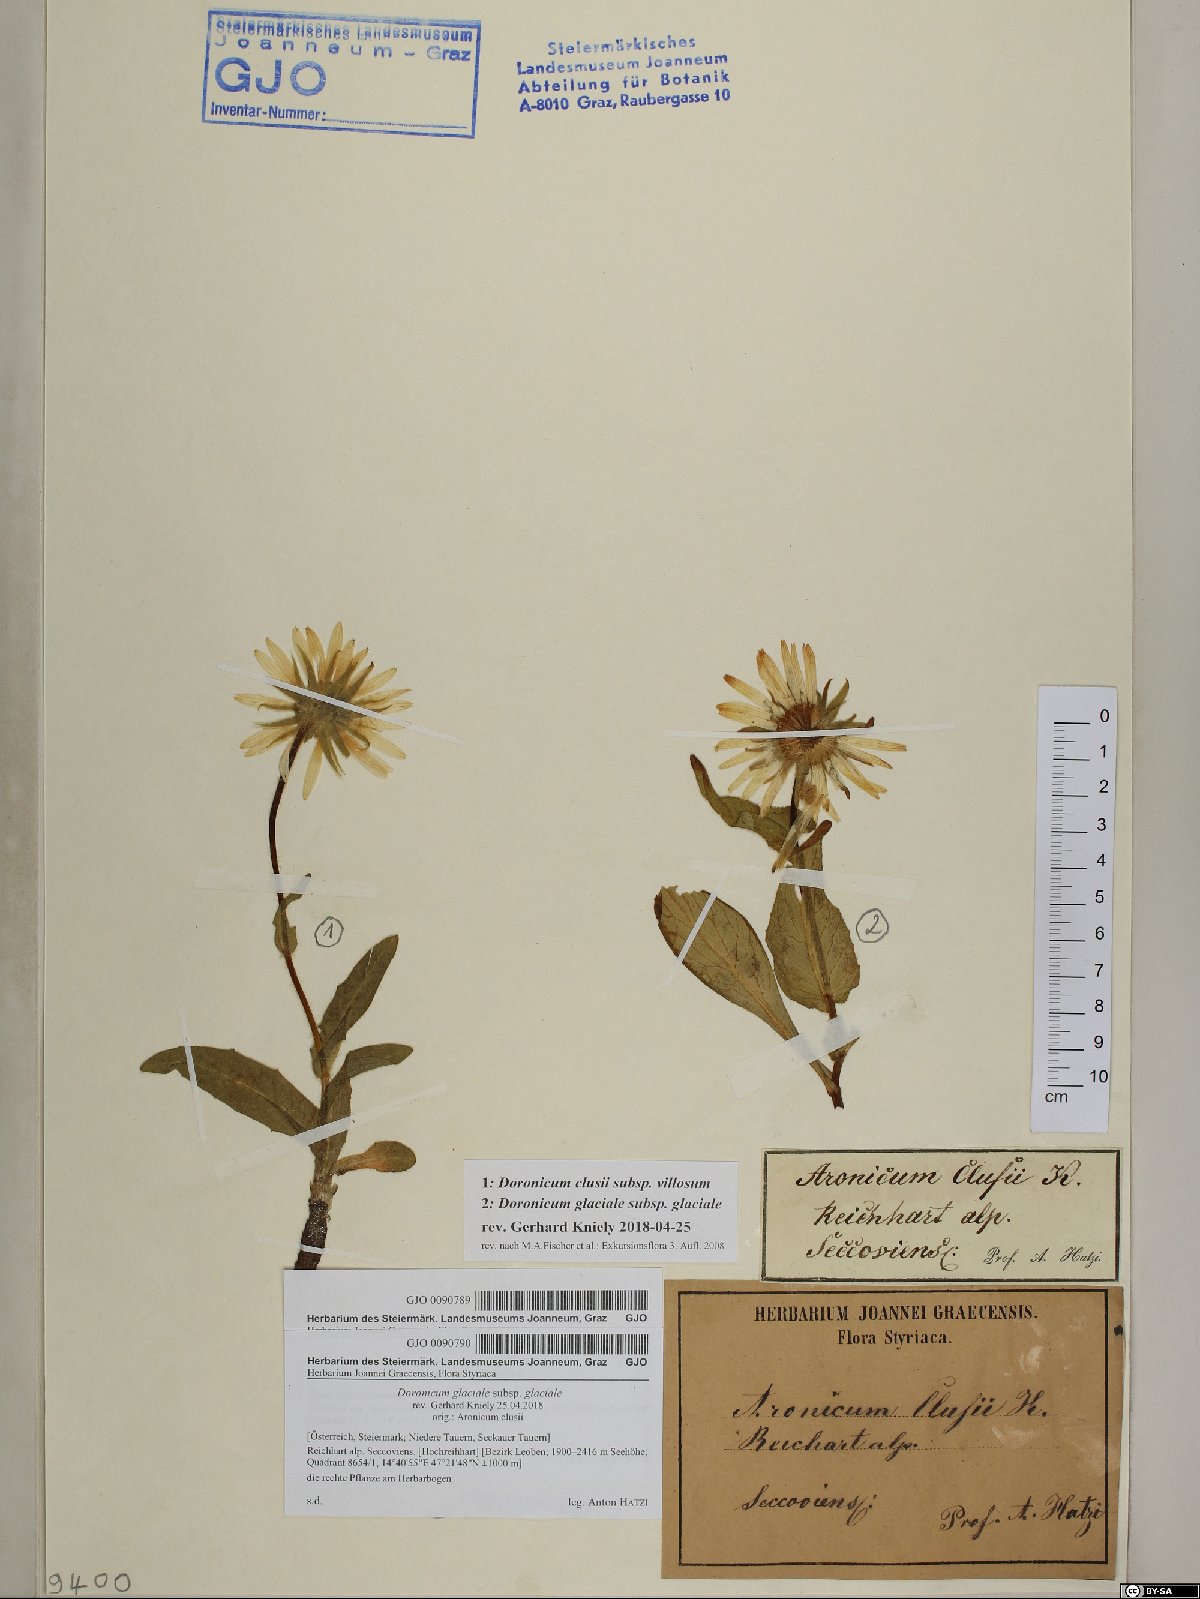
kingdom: Plantae
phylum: Tracheophyta
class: Magnoliopsida
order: Asterales
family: Asteraceae
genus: Doronicum
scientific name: Doronicum clusii
